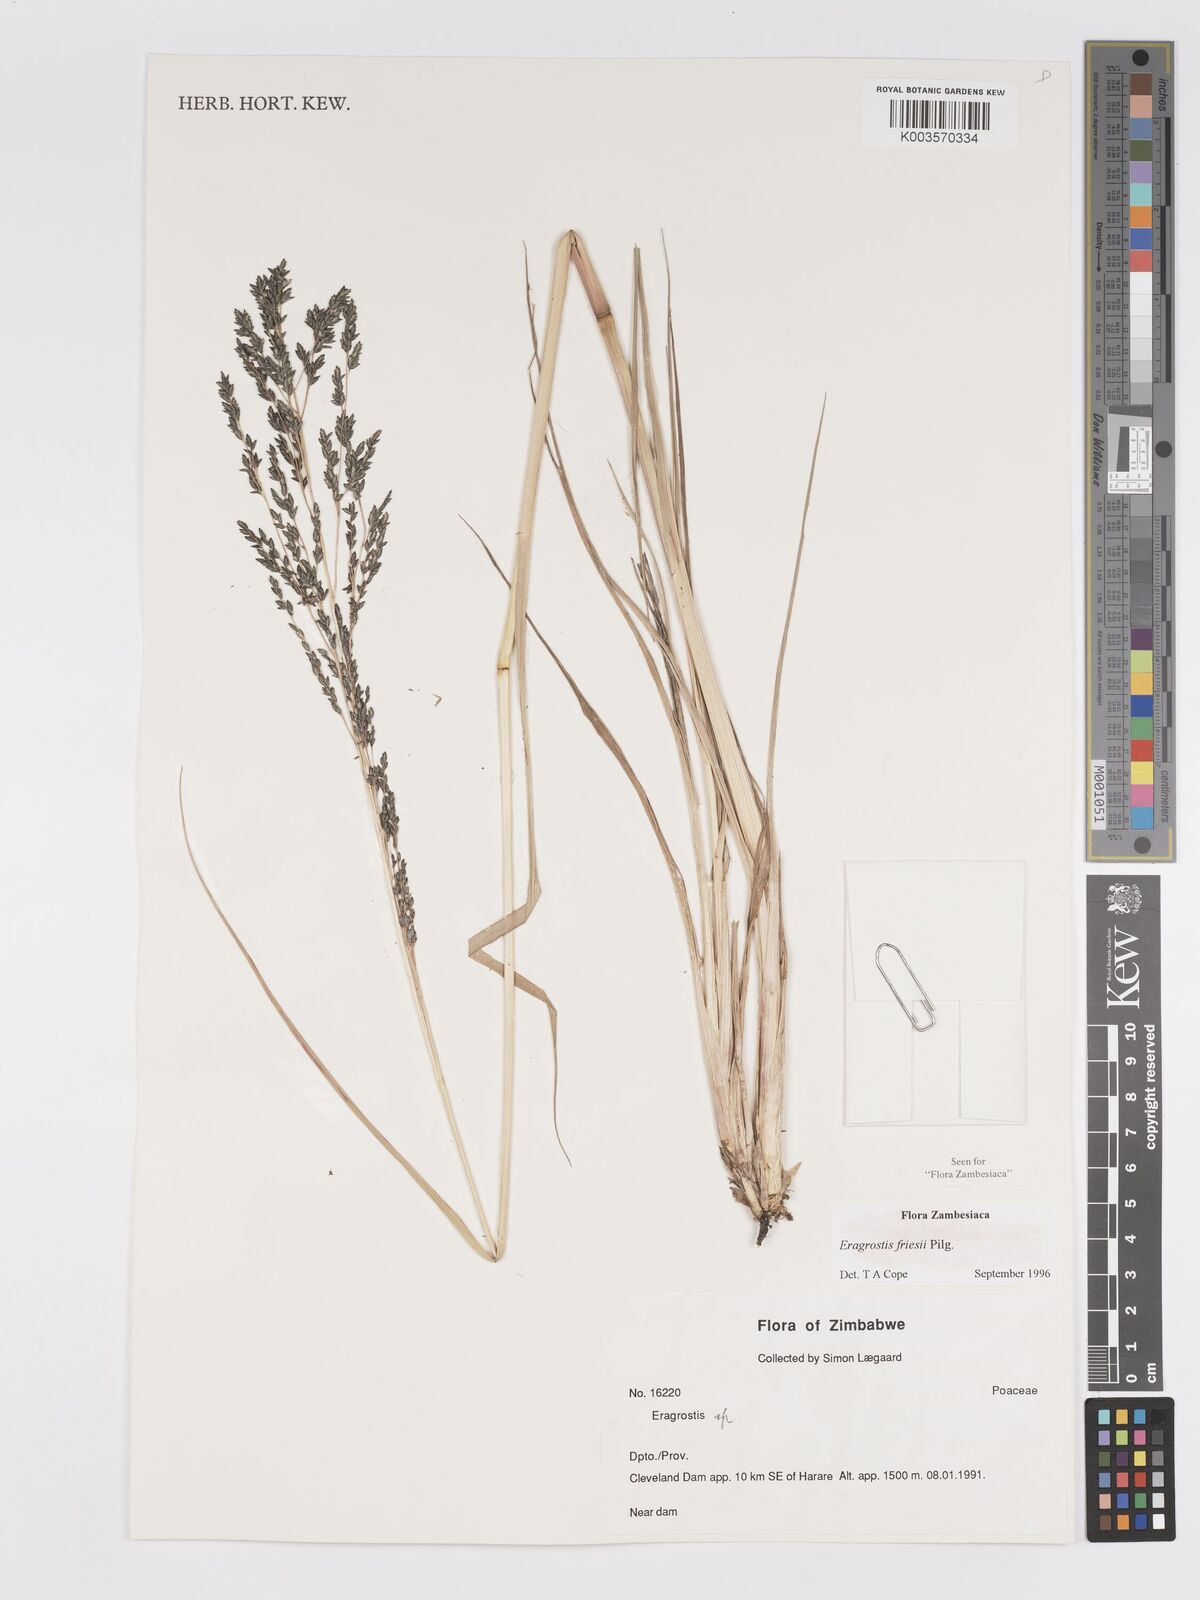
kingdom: Plantae
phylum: Tracheophyta
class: Liliopsida
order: Poales
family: Poaceae
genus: Eragrostis
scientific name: Eragrostis friesii
